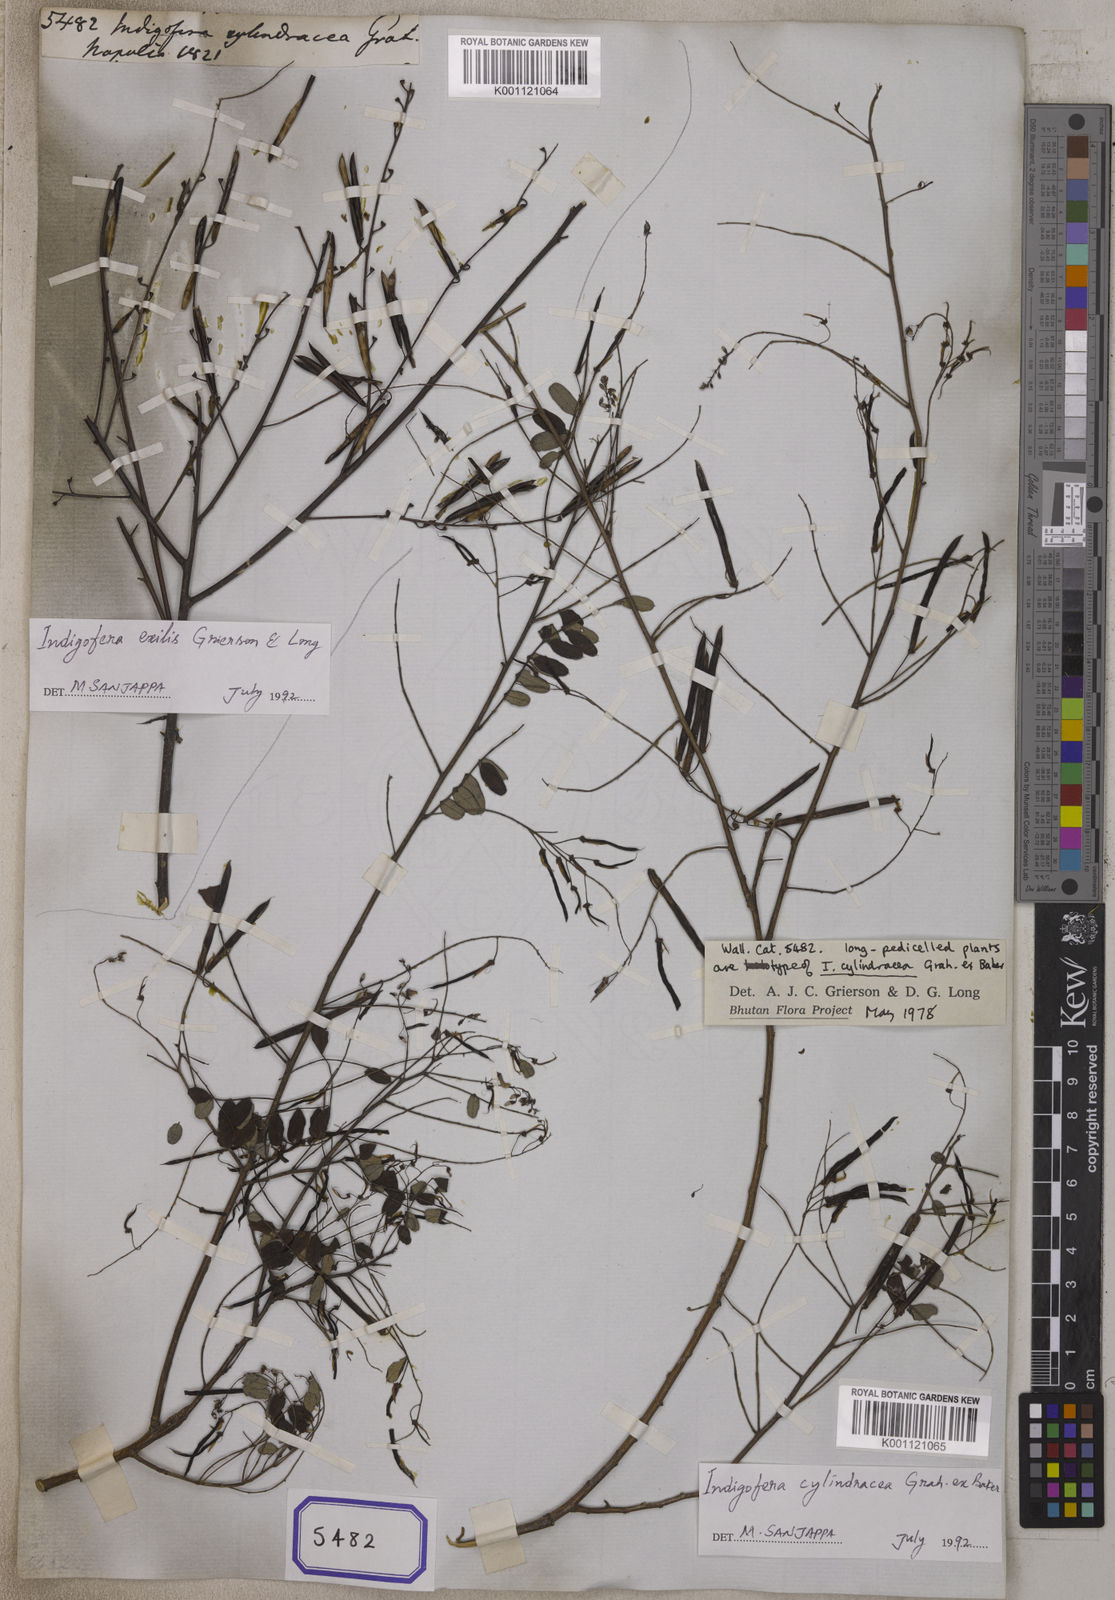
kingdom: Plantae
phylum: Tracheophyta
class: Magnoliopsida
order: Fabales
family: Fabaceae
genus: Indigofera
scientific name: Indigofera
